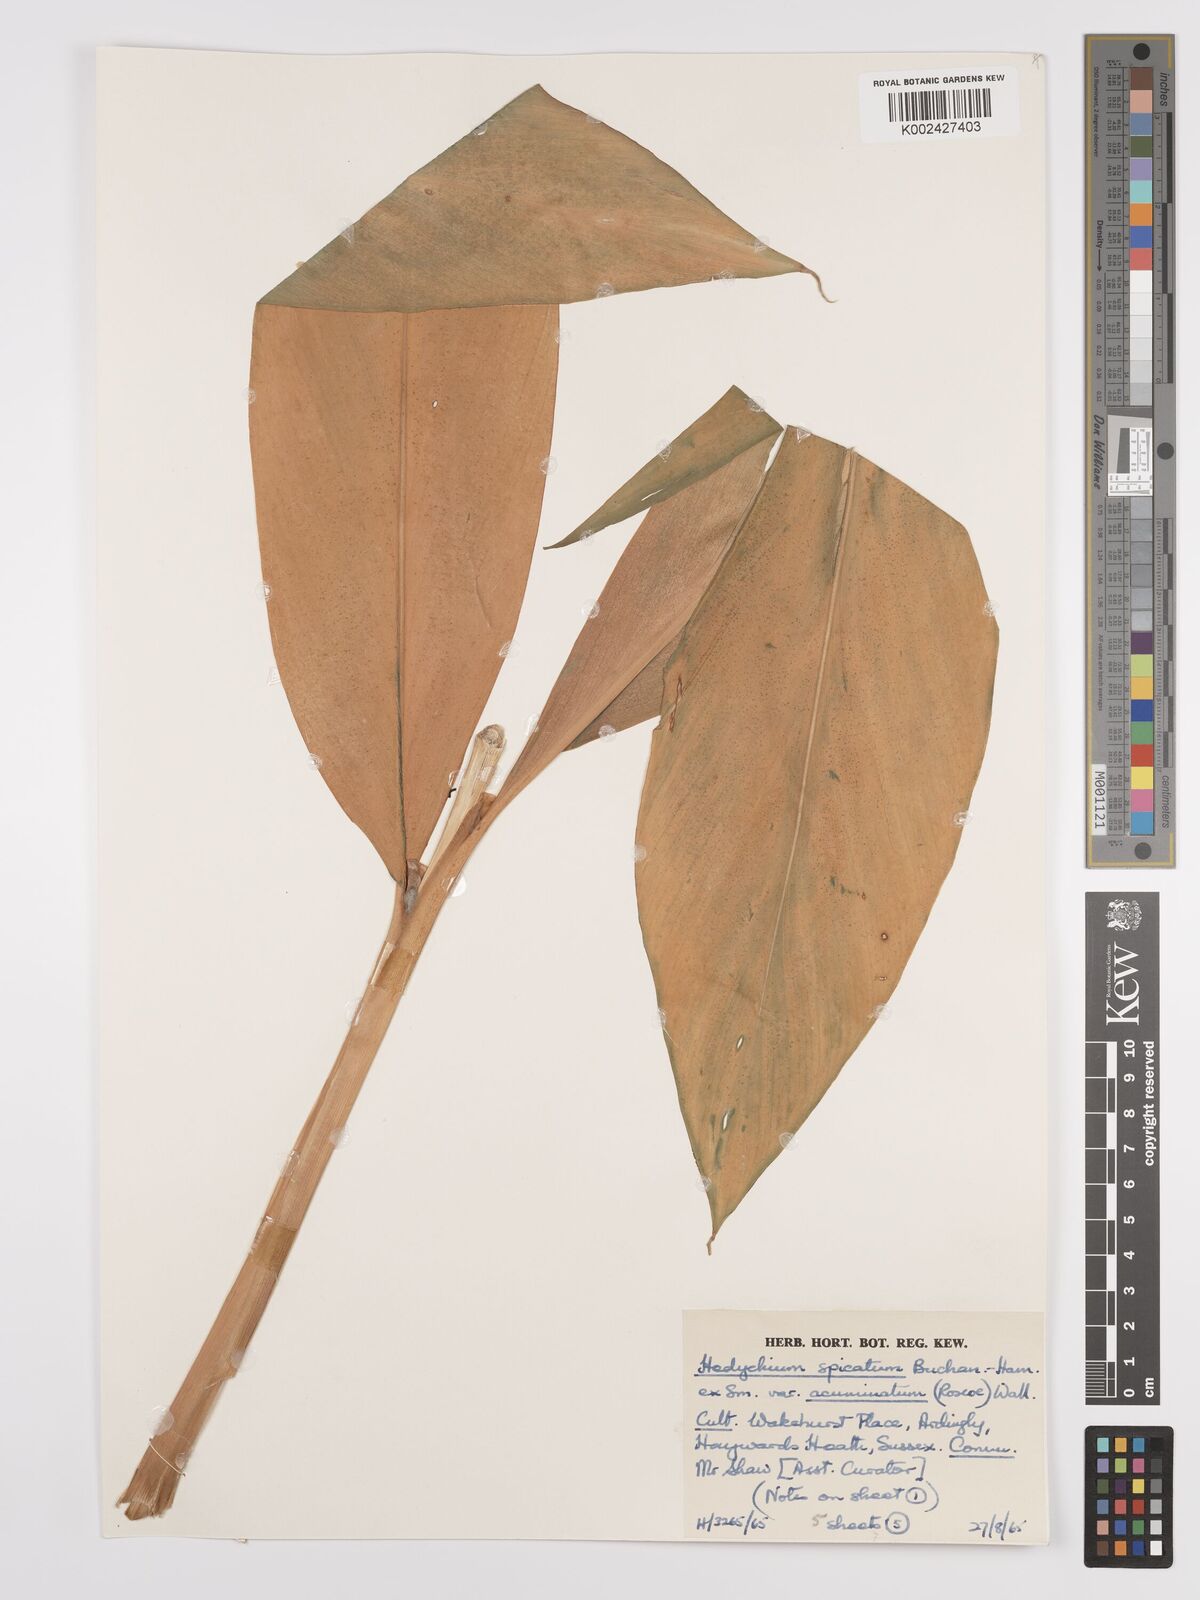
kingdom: Plantae
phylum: Tracheophyta
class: Liliopsida
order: Zingiberales
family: Zingiberaceae
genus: Hedychium
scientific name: Hedychium
